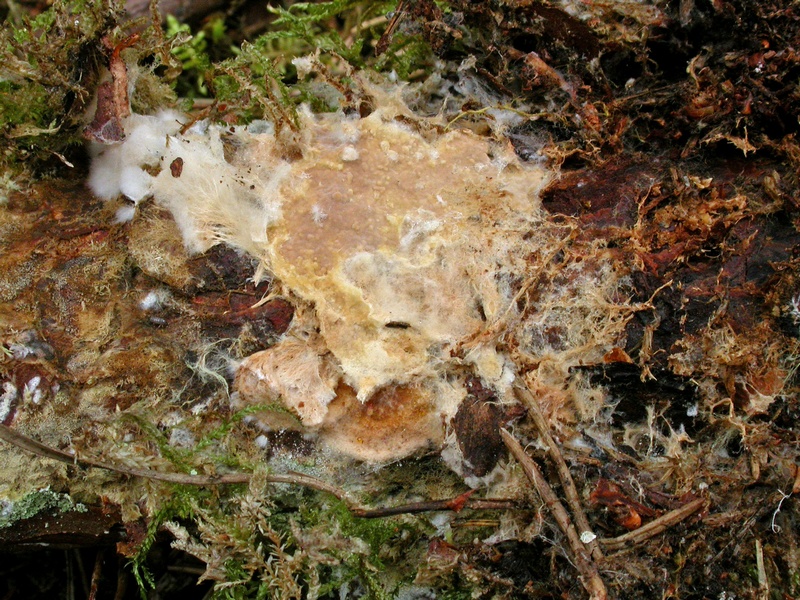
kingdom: Fungi
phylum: Basidiomycota
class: Agaricomycetes
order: Russulales
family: Peniophoraceae
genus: Asterostroma
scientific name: Asterostroma laxum
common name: lysrandet stjerneskind
